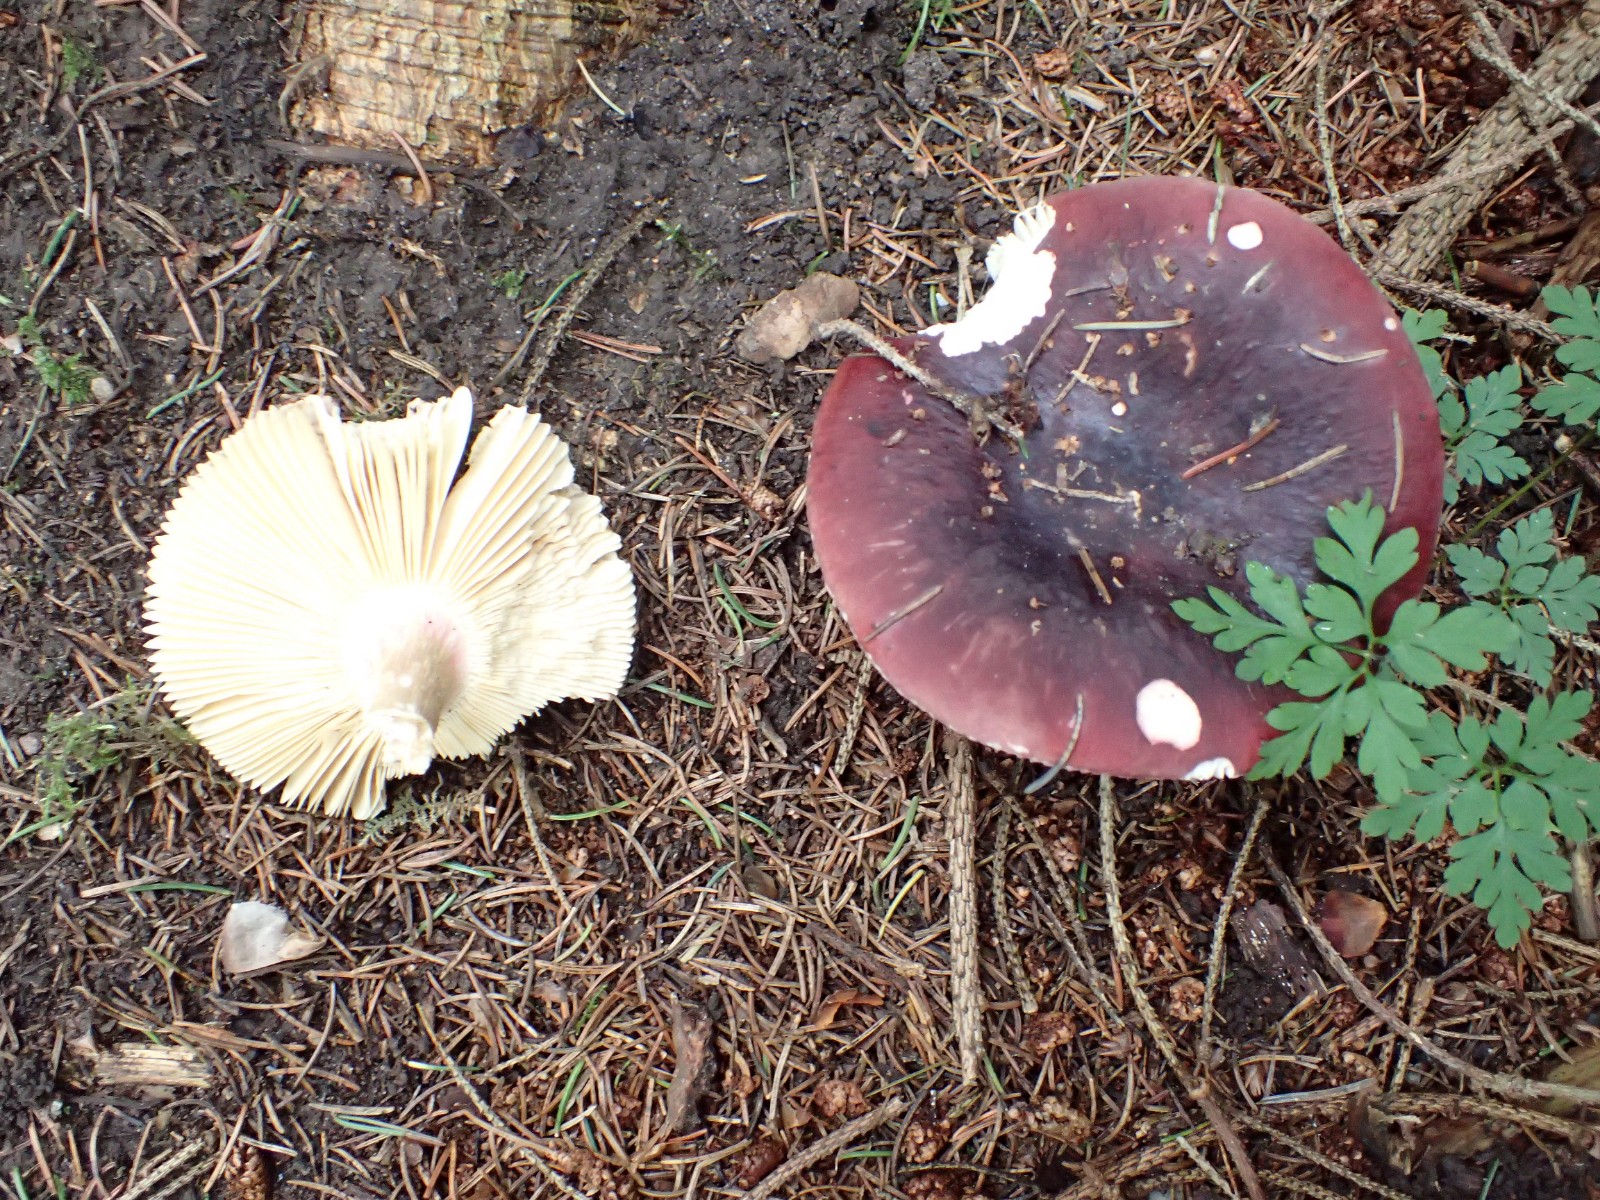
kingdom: Fungi
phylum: Basidiomycota
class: Agaricomycetes
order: Russulales
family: Russulaceae
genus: Russula
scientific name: Russula xerampelina
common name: hummer-skørhat
